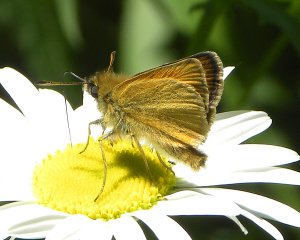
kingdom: Animalia
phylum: Arthropoda
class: Insecta
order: Lepidoptera
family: Hesperiidae
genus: Thymelicus
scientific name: Thymelicus lineola
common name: European Skipper
